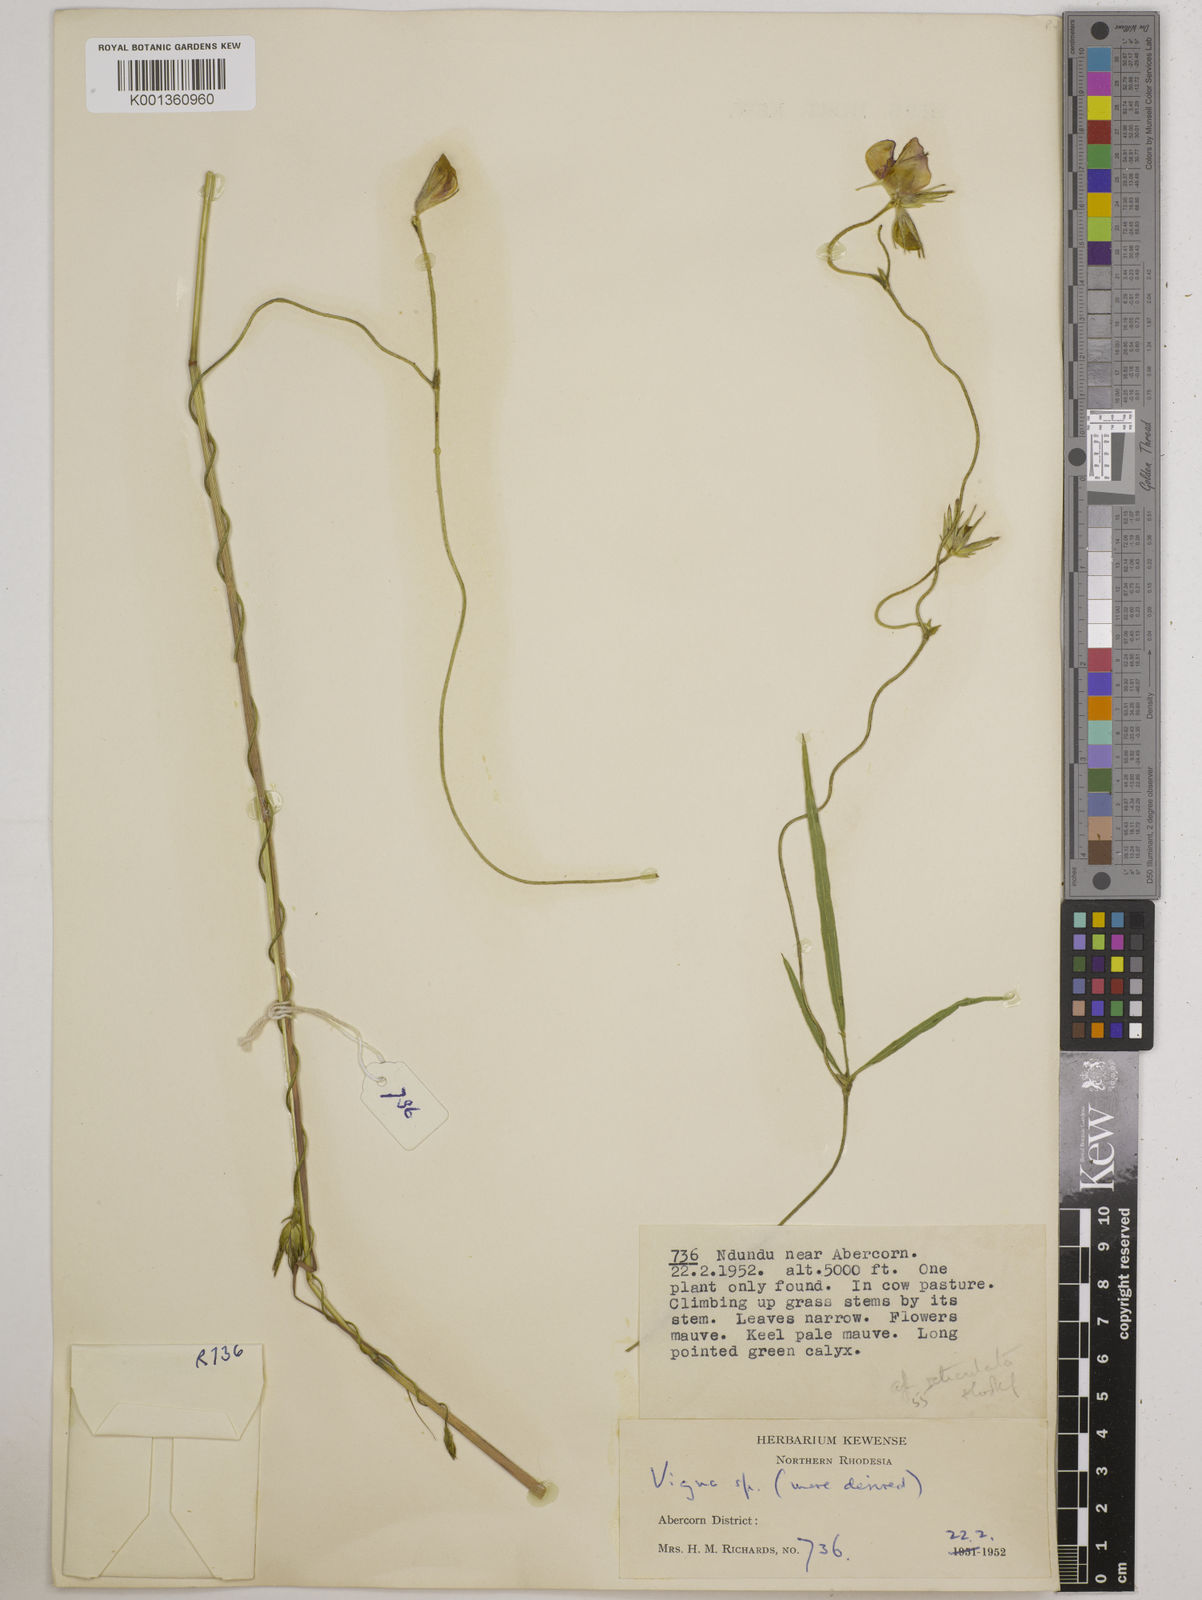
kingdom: Plantae
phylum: Tracheophyta
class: Magnoliopsida
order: Fabales
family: Fabaceae
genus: Vigna
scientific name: Vigna reticulata
